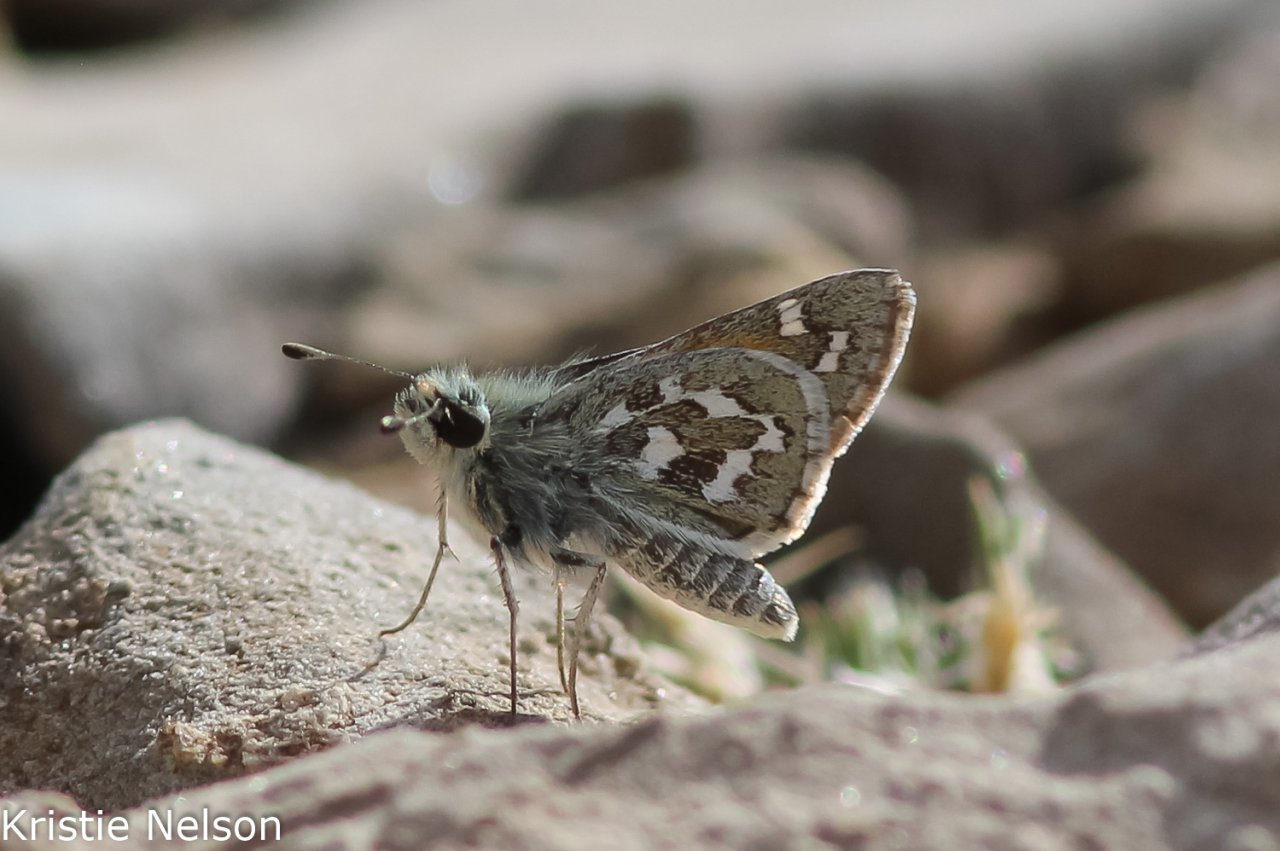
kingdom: Animalia
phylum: Arthropoda
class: Insecta
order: Lepidoptera
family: Hesperiidae
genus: Hesperia
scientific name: Hesperia uncas
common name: Uncas Skipper
